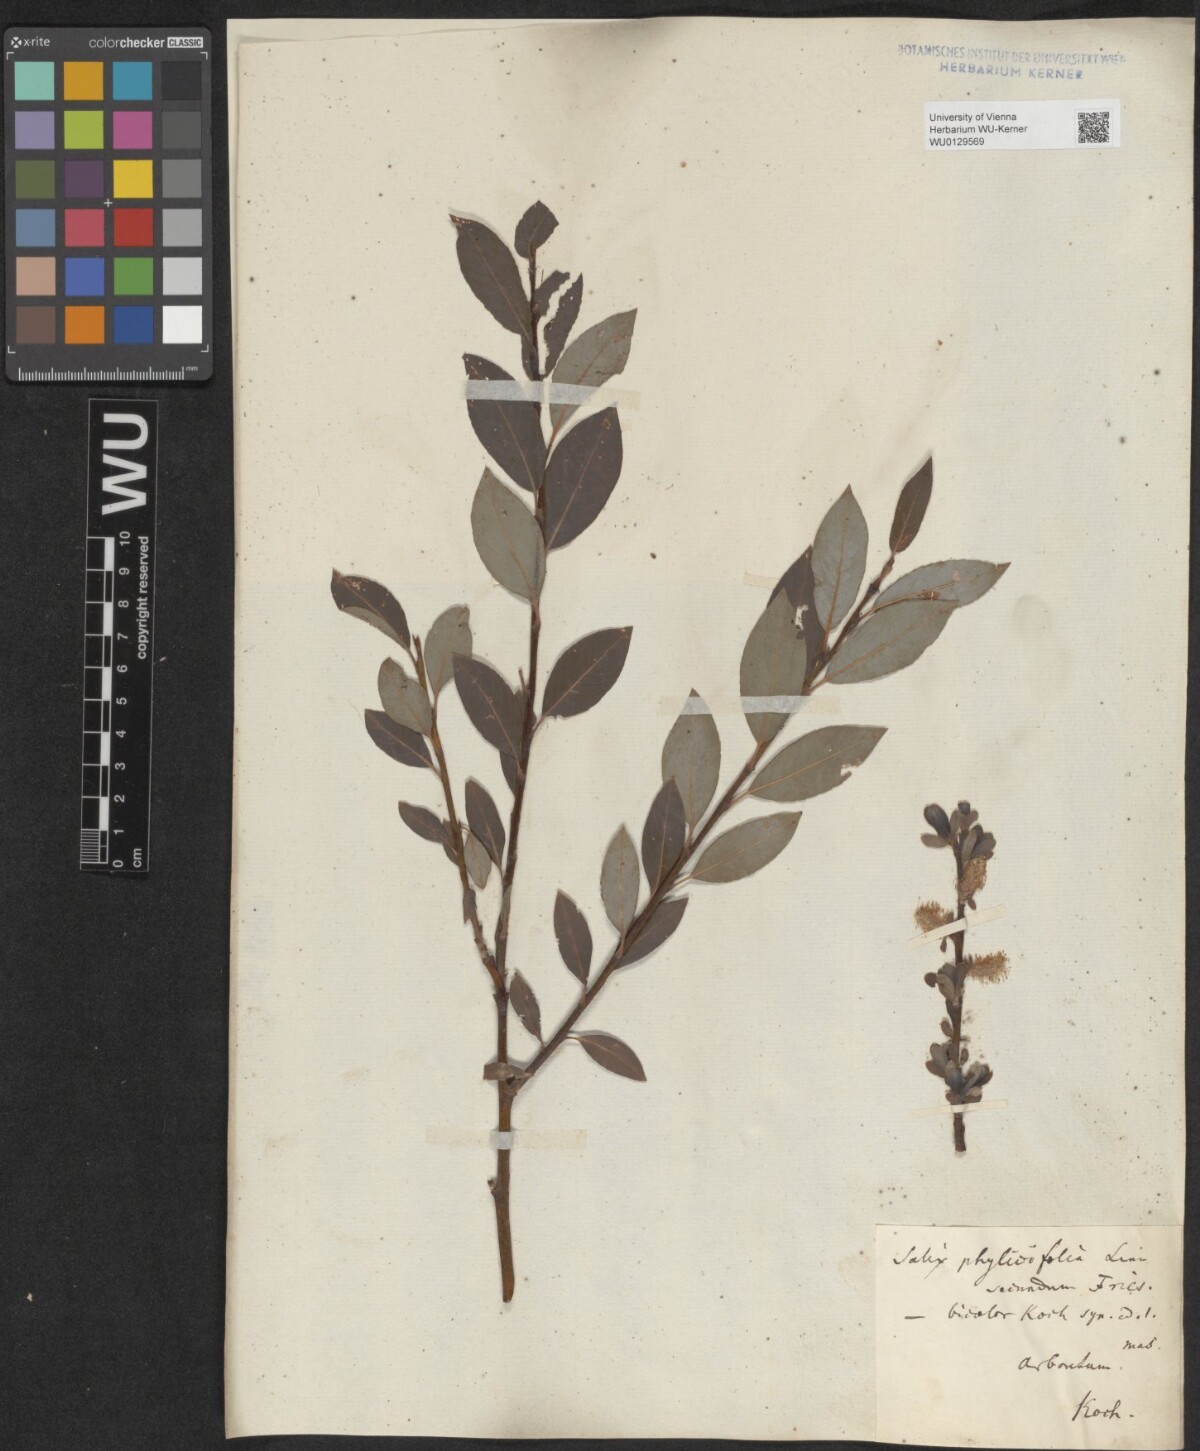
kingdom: Plantae
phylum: Tracheophyta
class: Magnoliopsida
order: Malpighiales
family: Salicaceae
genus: Salix
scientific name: Salix bicolor
